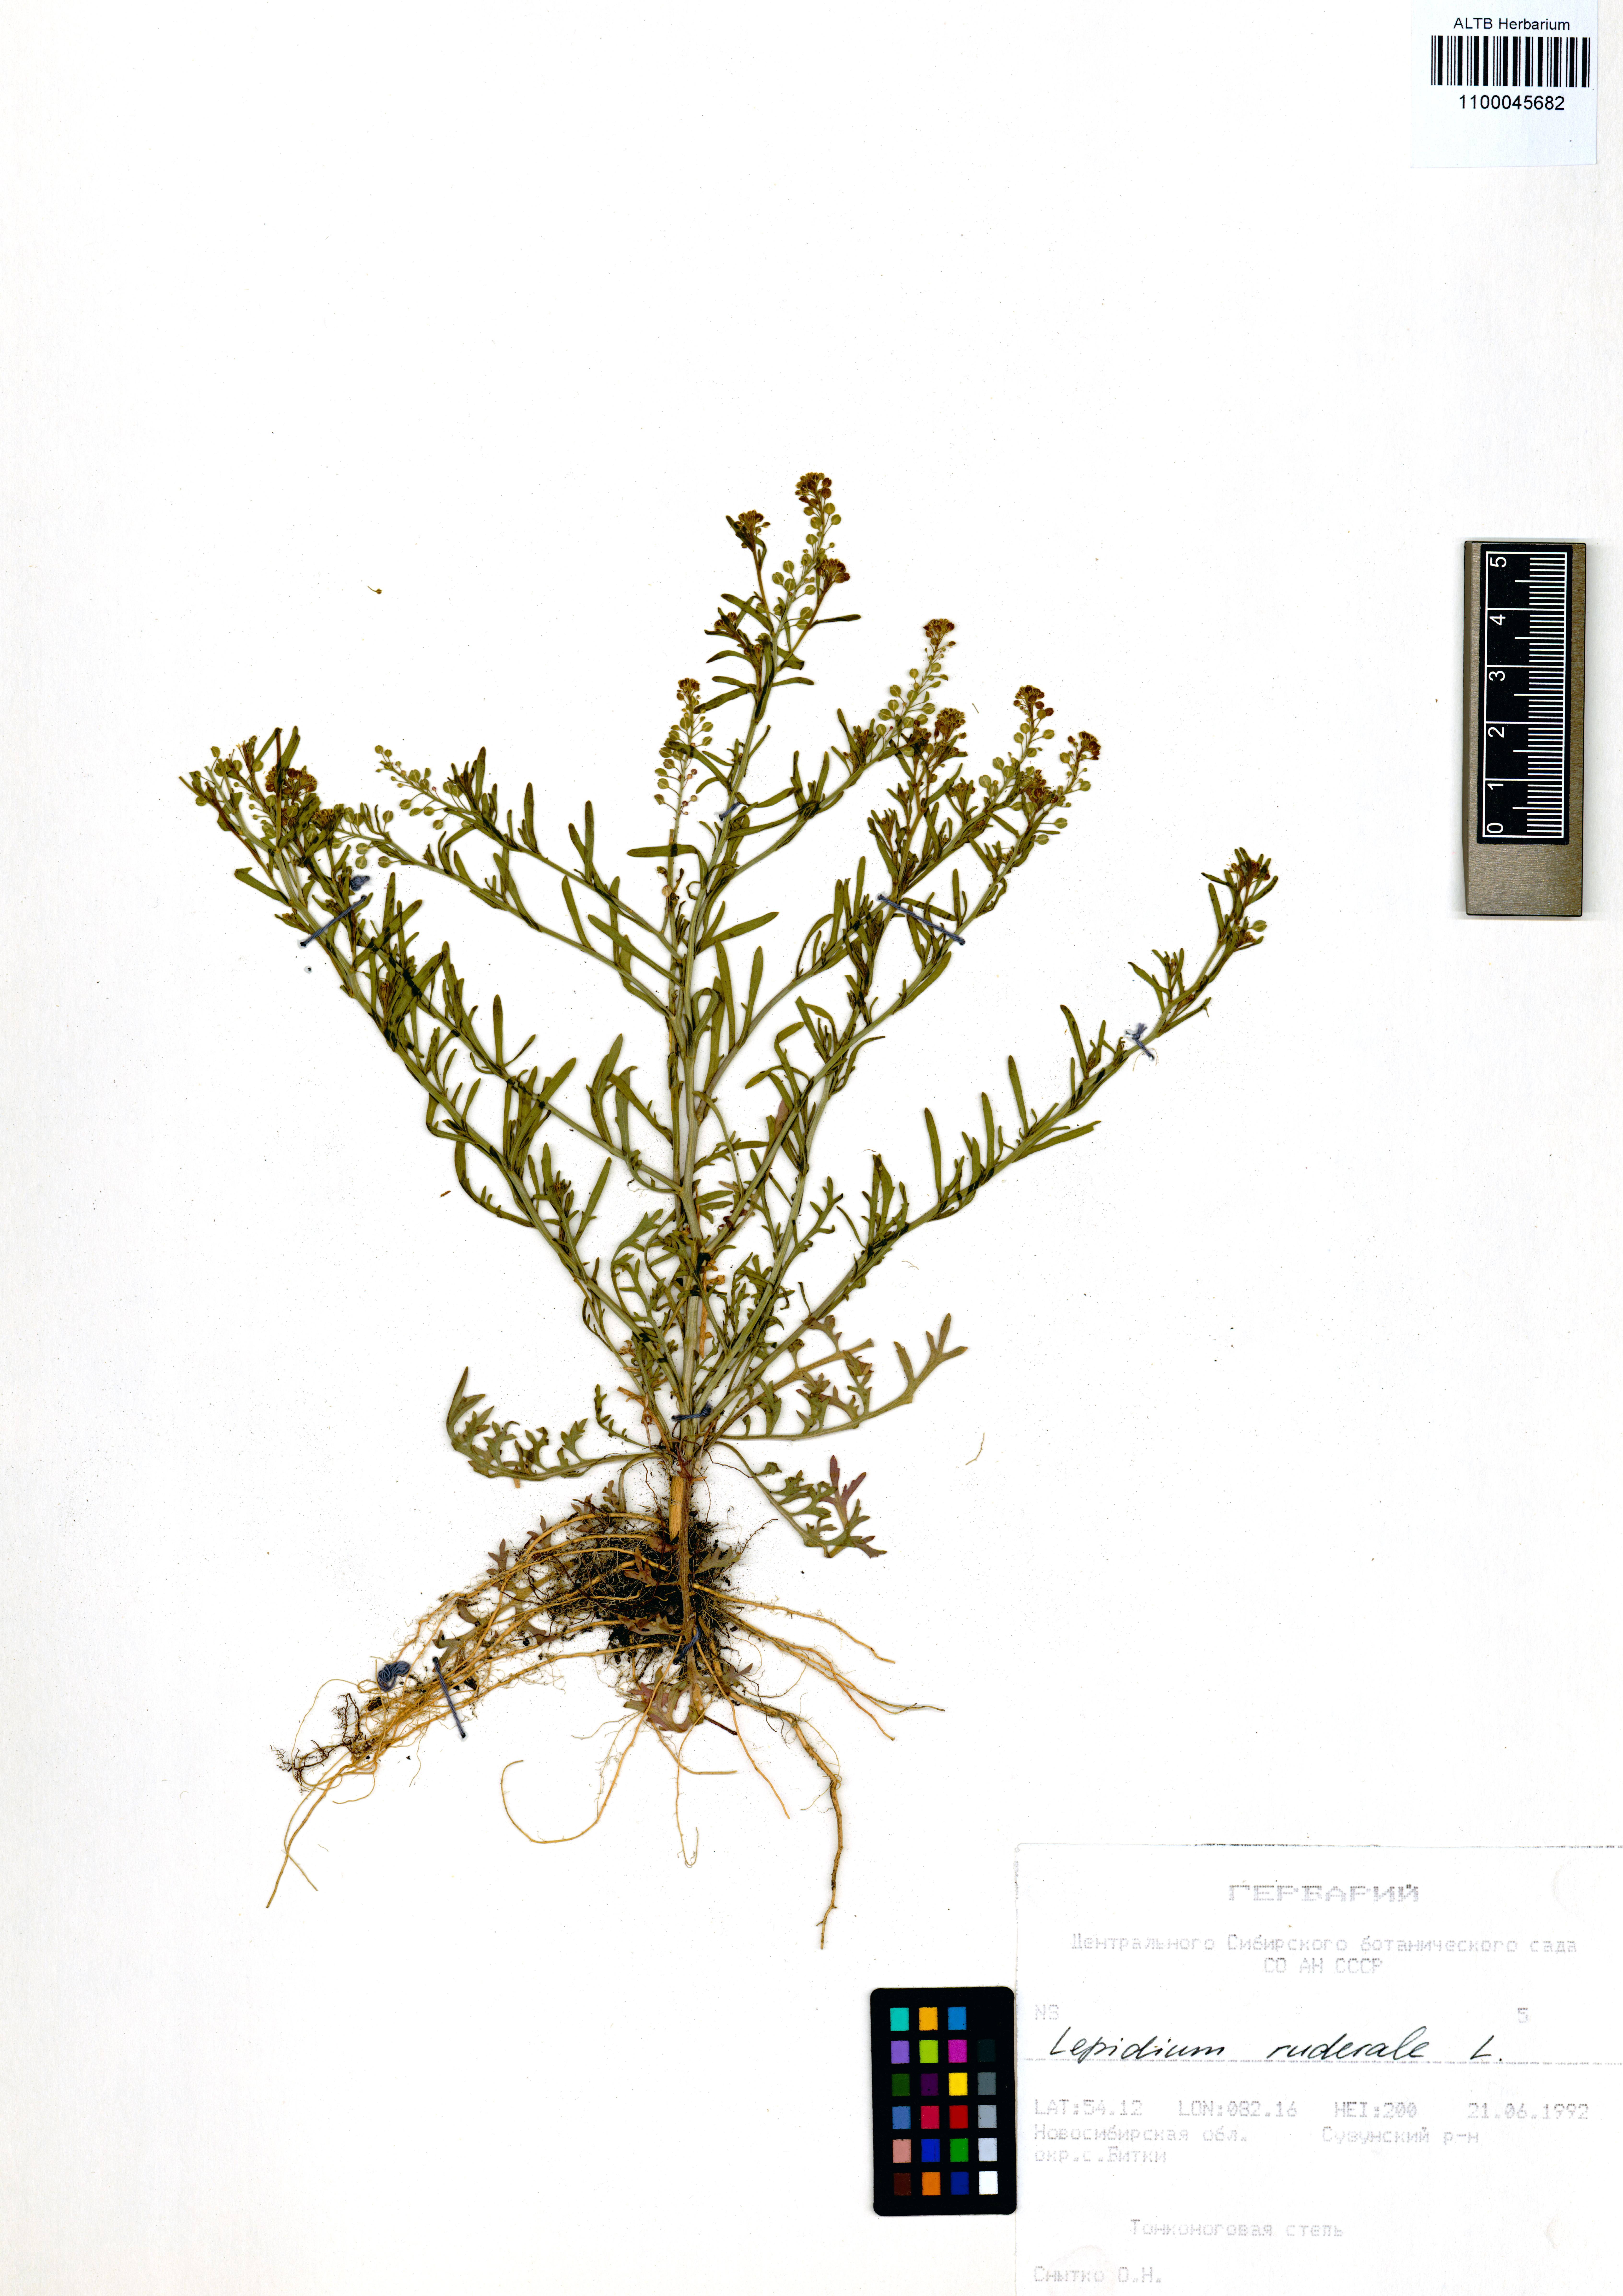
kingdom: Plantae
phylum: Tracheophyta
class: Magnoliopsida
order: Brassicales
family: Brassicaceae
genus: Lepidium
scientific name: Lepidium ruderale
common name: Narrow-leaved pepperwort
